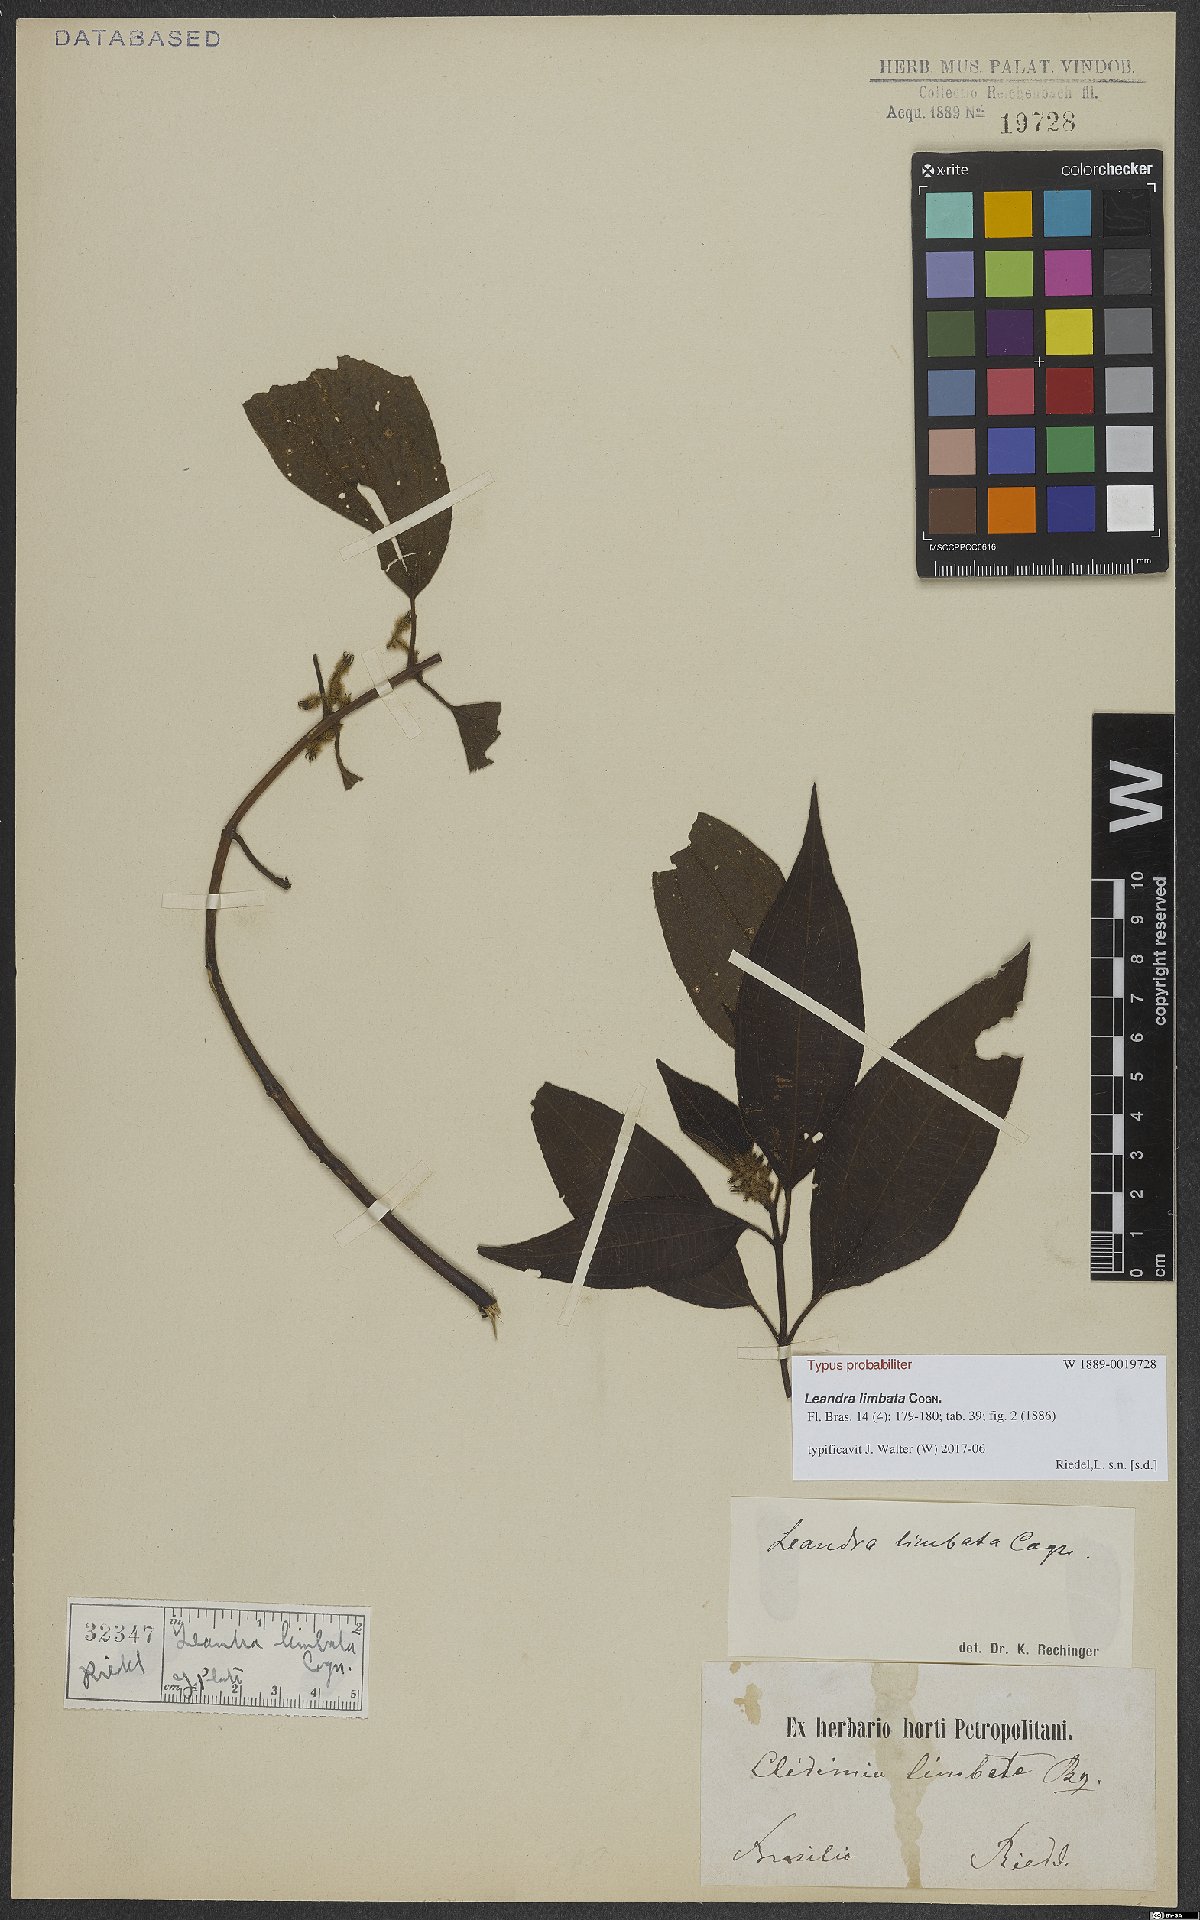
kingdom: Plantae
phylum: Tracheophyta
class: Magnoliopsida
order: Myrtales
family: Melastomataceae
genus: Miconia
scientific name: Miconia limbata
